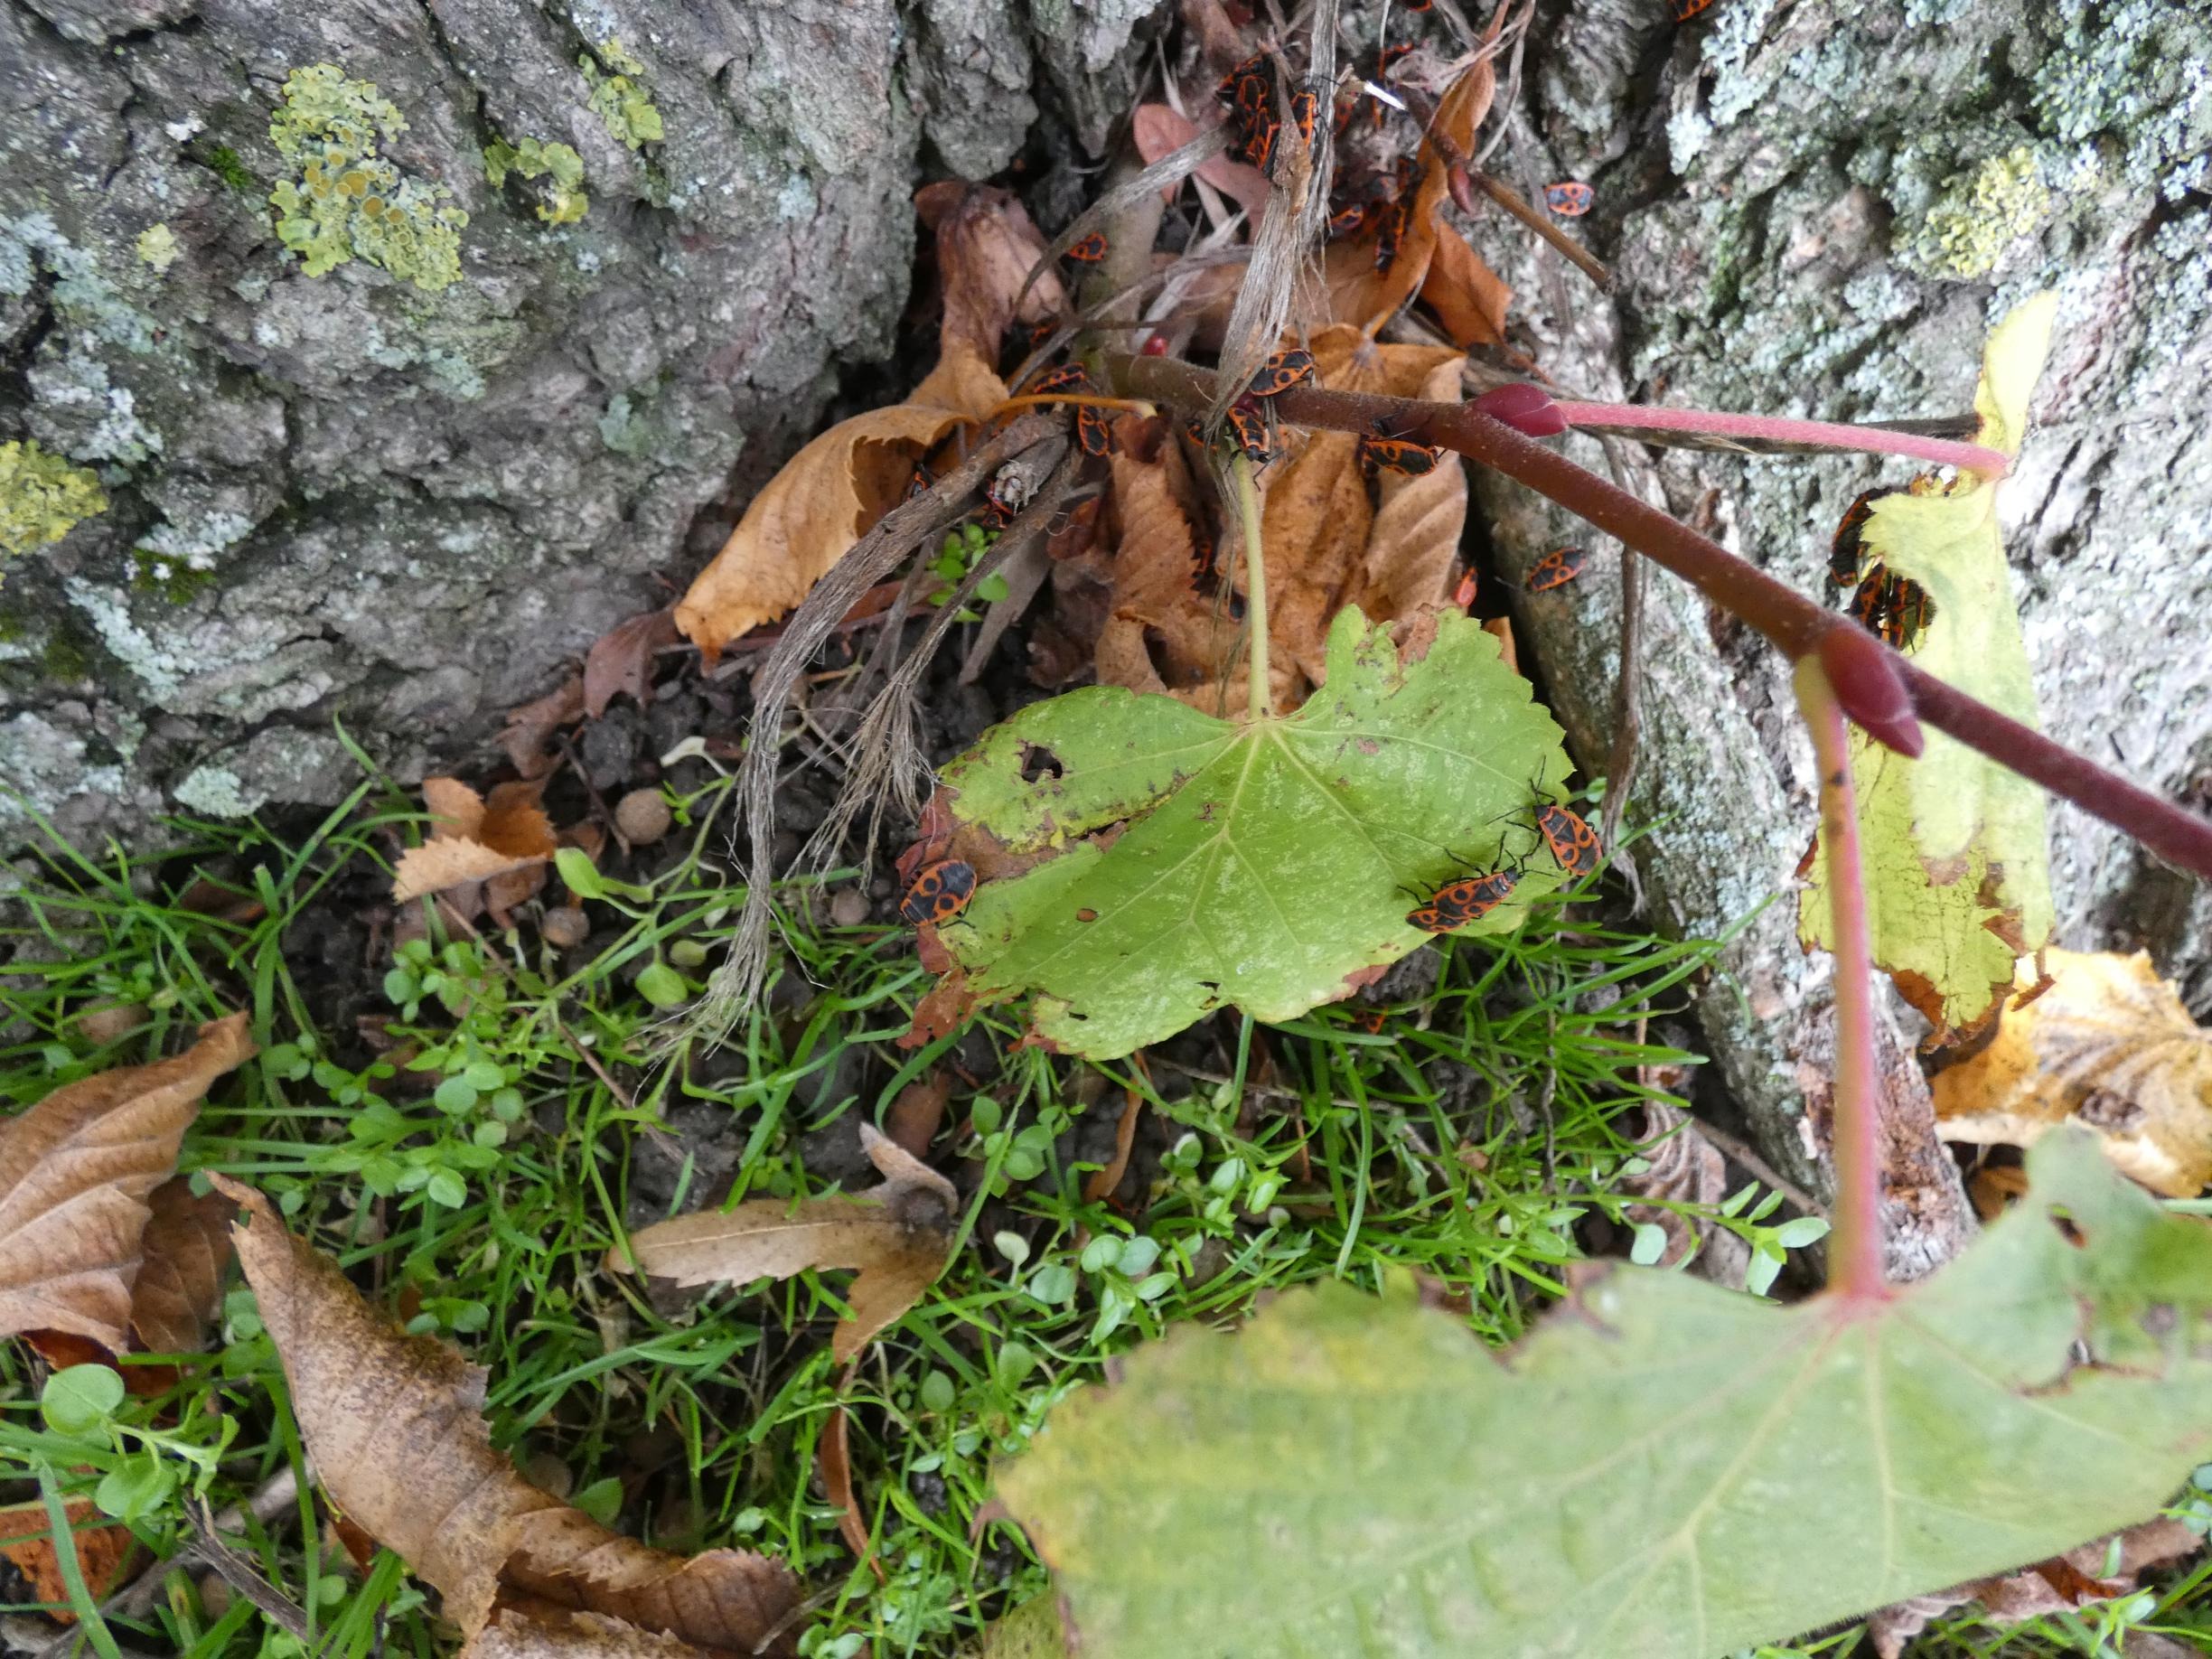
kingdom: Animalia
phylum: Arthropoda
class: Insecta
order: Hemiptera
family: Pyrrhocoridae
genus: Pyrrhocoris
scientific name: Pyrrhocoris apterus
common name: Ildtæge
